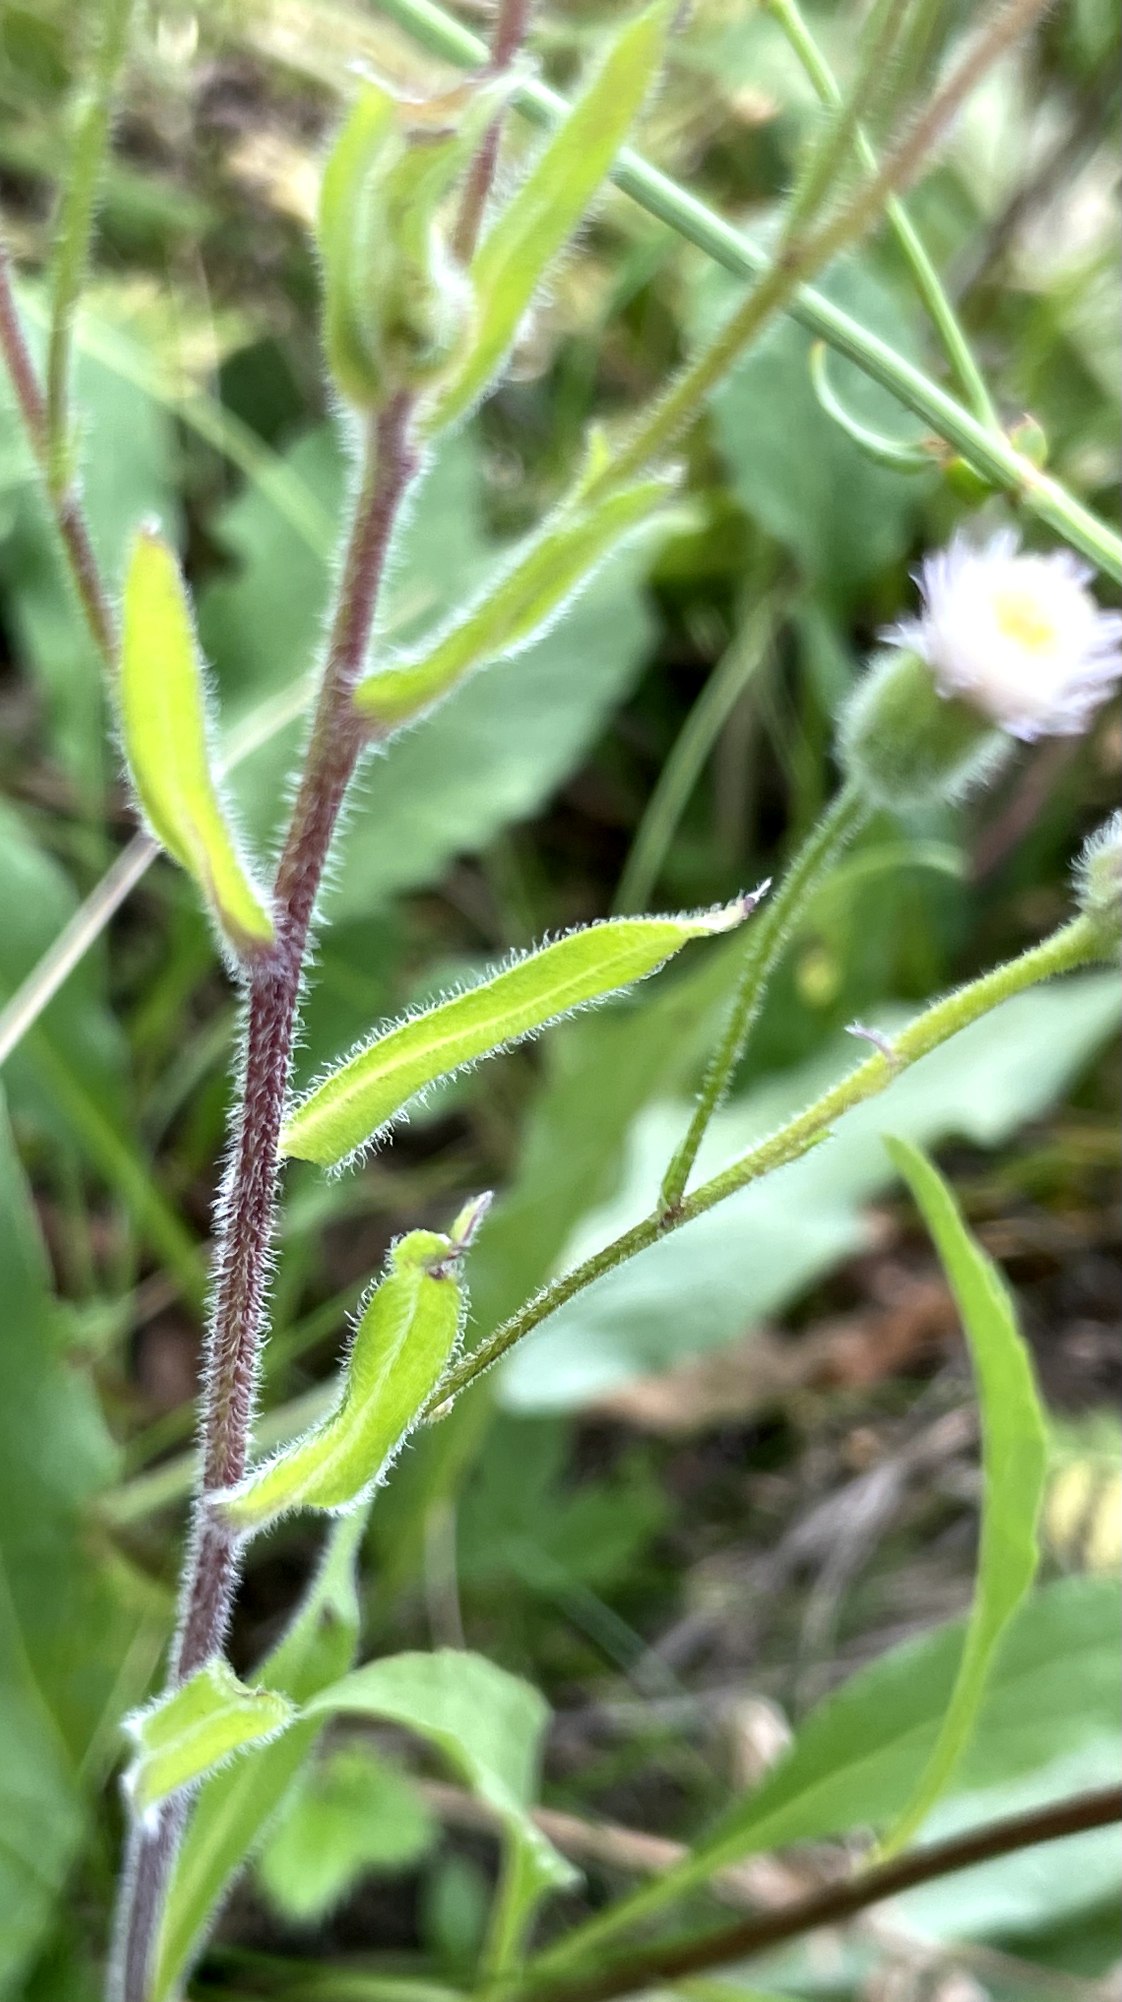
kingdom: Plantae
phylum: Tracheophyta
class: Magnoliopsida
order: Asterales
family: Asteraceae
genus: Erigeron
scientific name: Erigeron acris
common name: Bitter bakkestjerne
